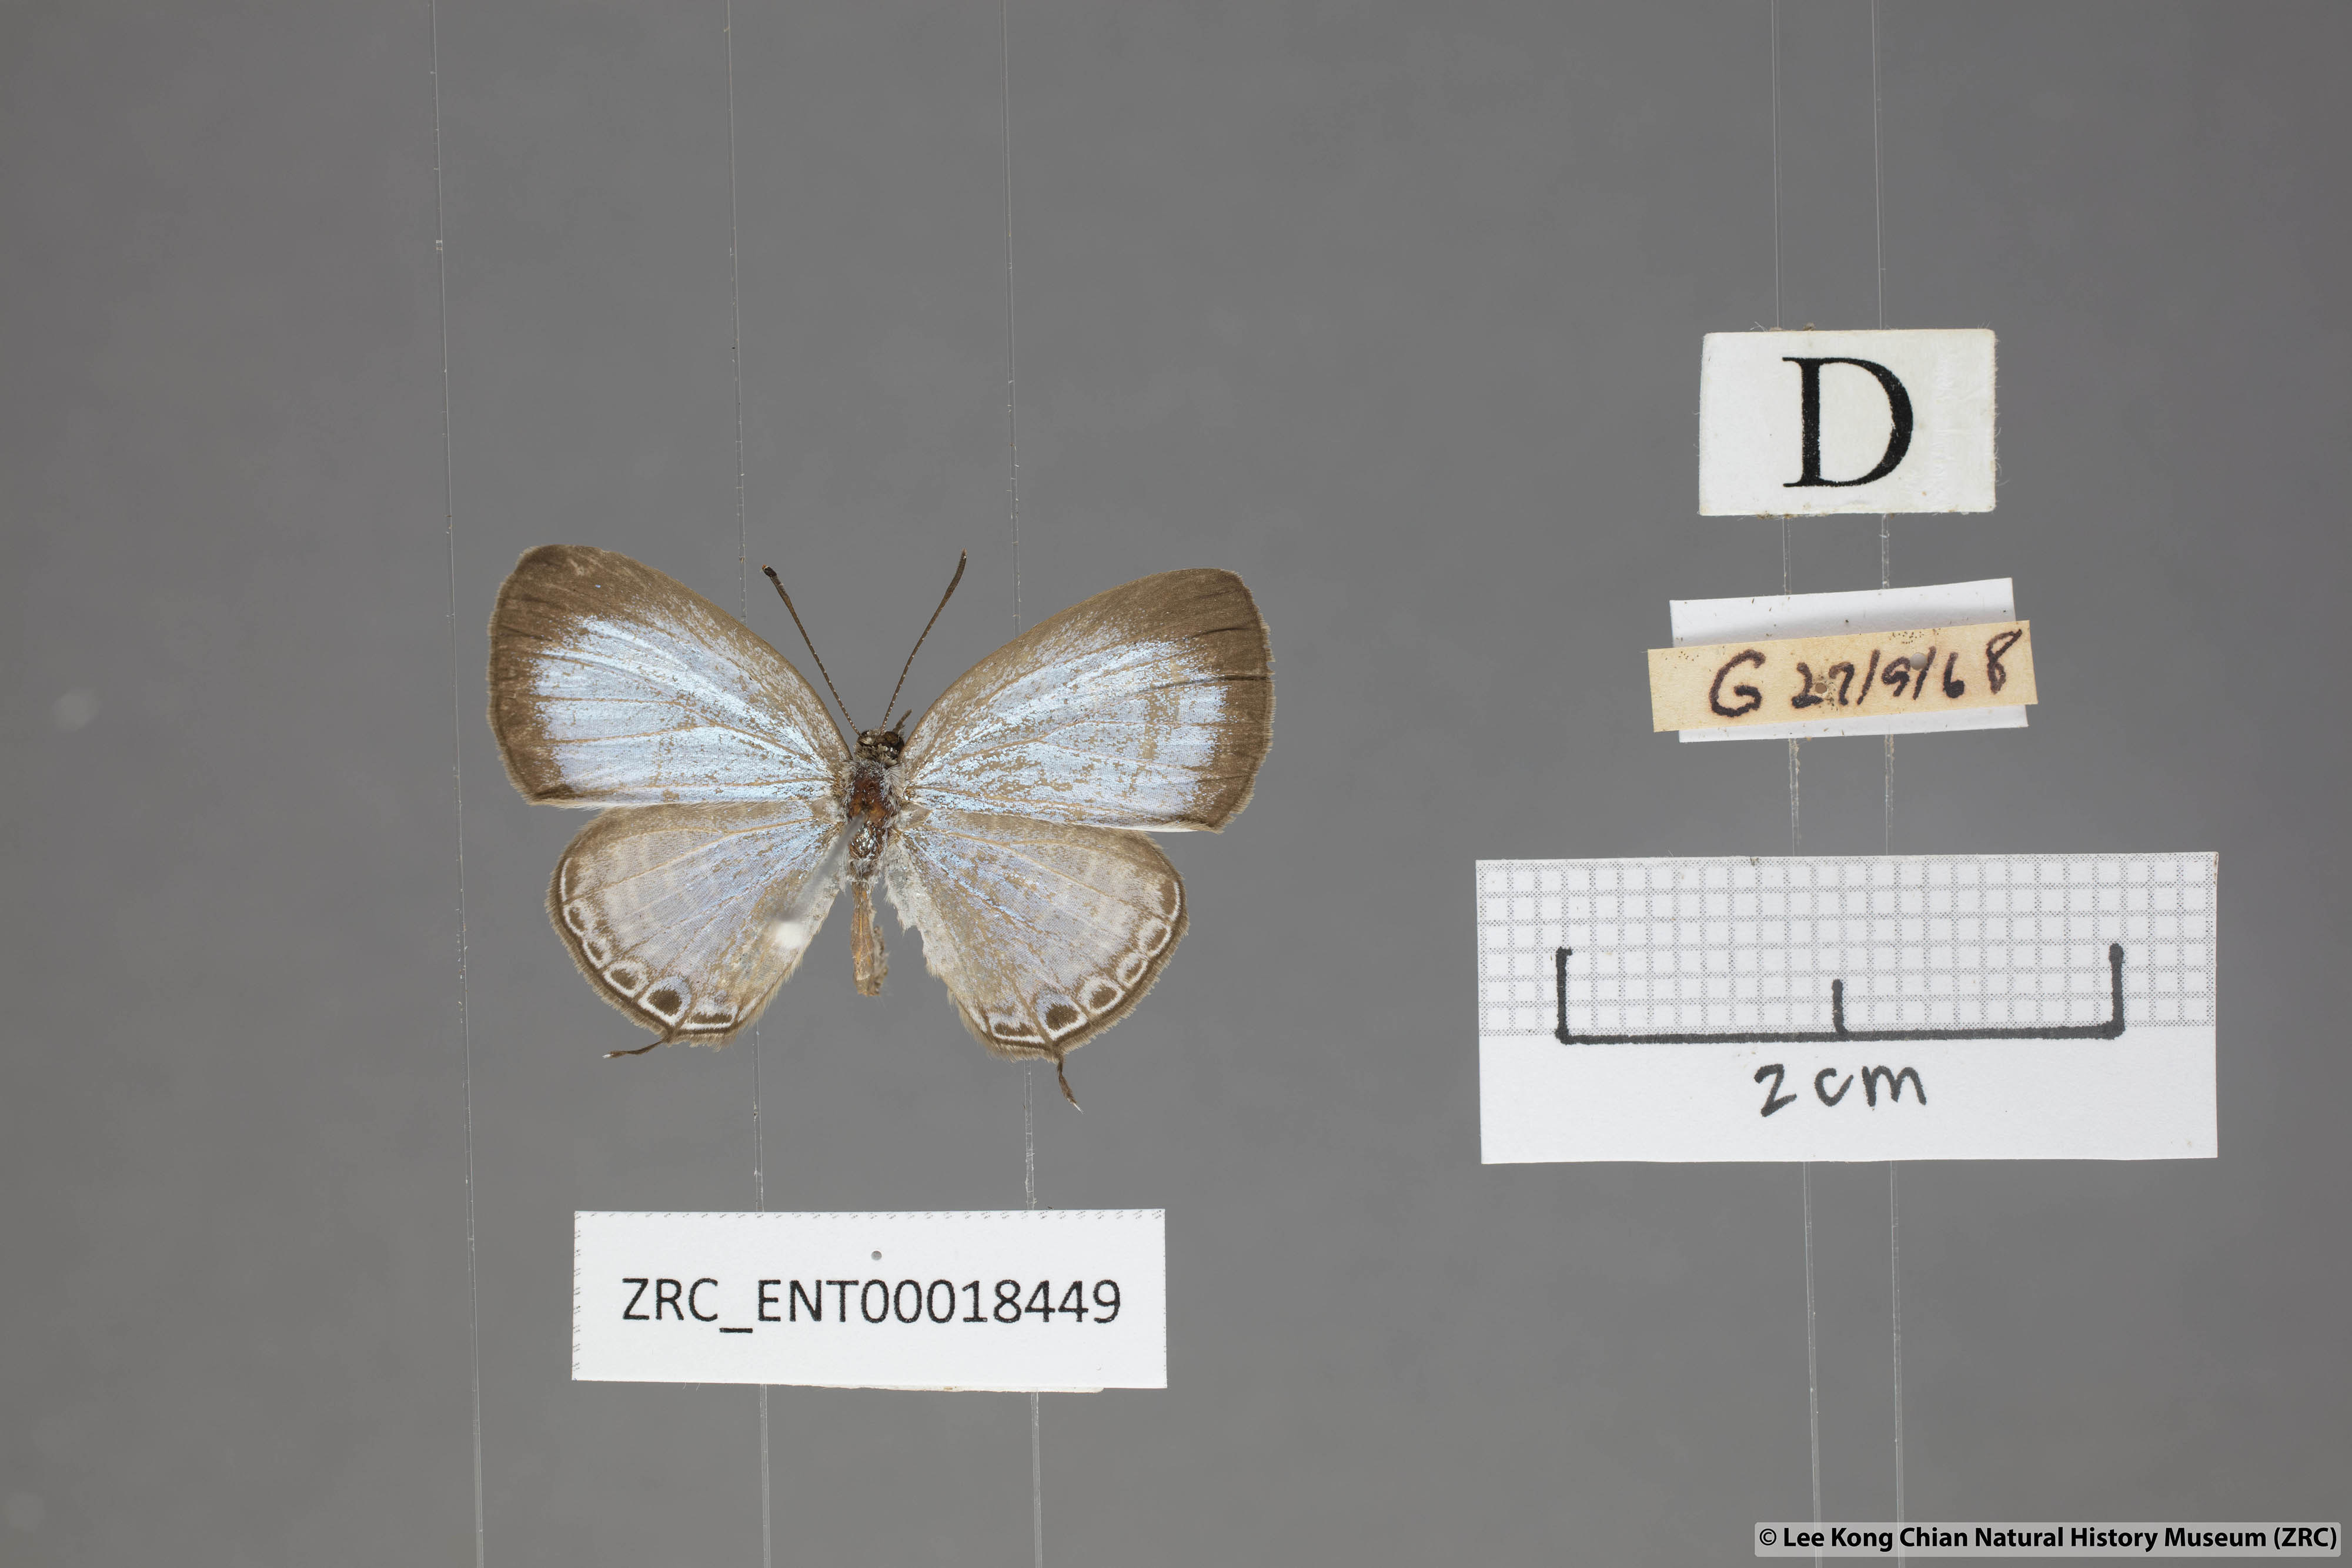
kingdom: Animalia
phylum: Arthropoda
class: Insecta
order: Lepidoptera
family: Lycaenidae
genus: Nacaduba
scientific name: Nacaduba sanaya
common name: Jewel fourline blue
